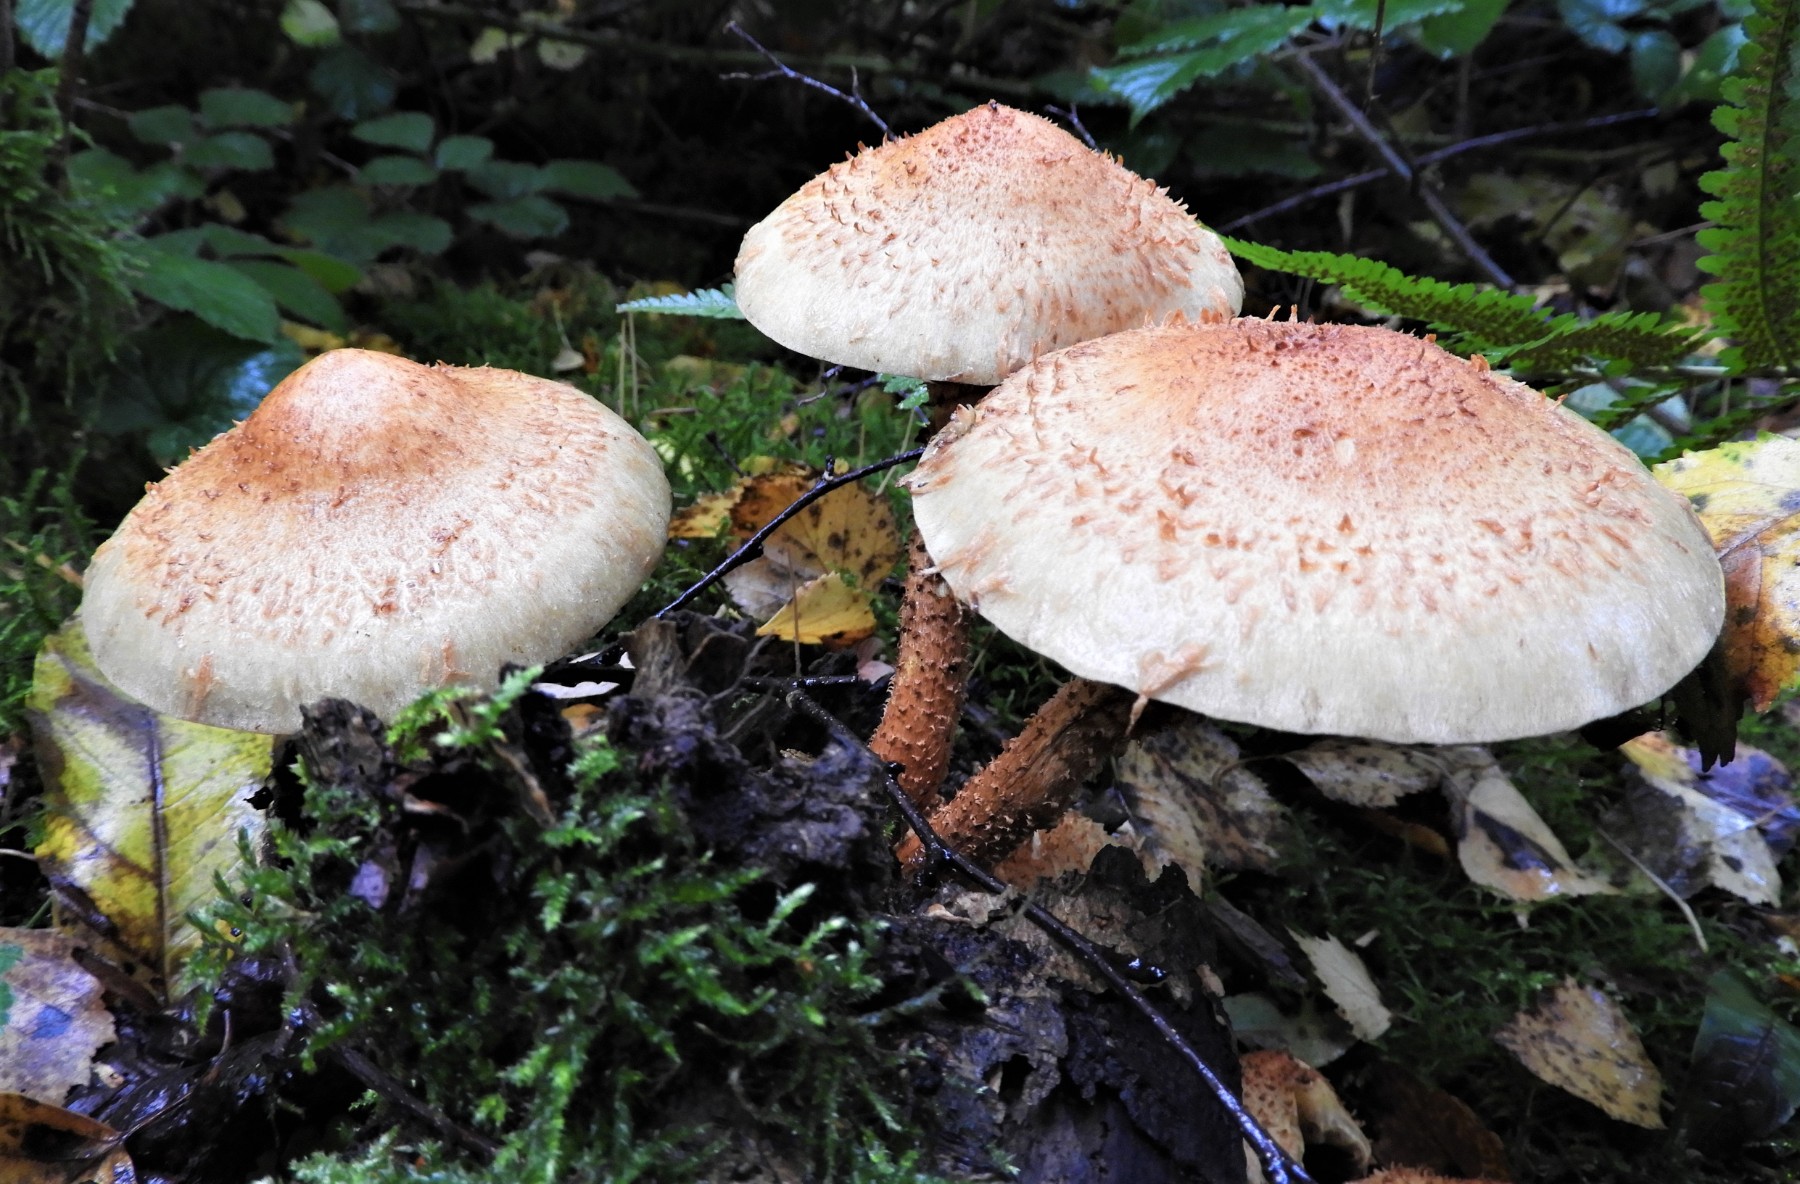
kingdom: Fungi
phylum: Basidiomycota
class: Agaricomycetes
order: Agaricales
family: Strophariaceae
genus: Pholiota
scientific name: Pholiota squarrosa
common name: krumskællet skælhat
